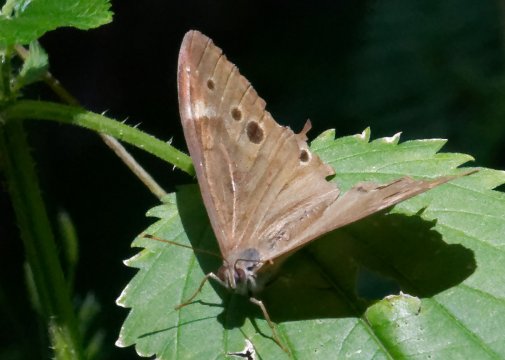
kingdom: Animalia
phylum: Arthropoda
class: Insecta
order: Lepidoptera
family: Nymphalidae
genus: Lethe
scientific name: Lethe anthedon
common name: Northern Pearly-Eye
